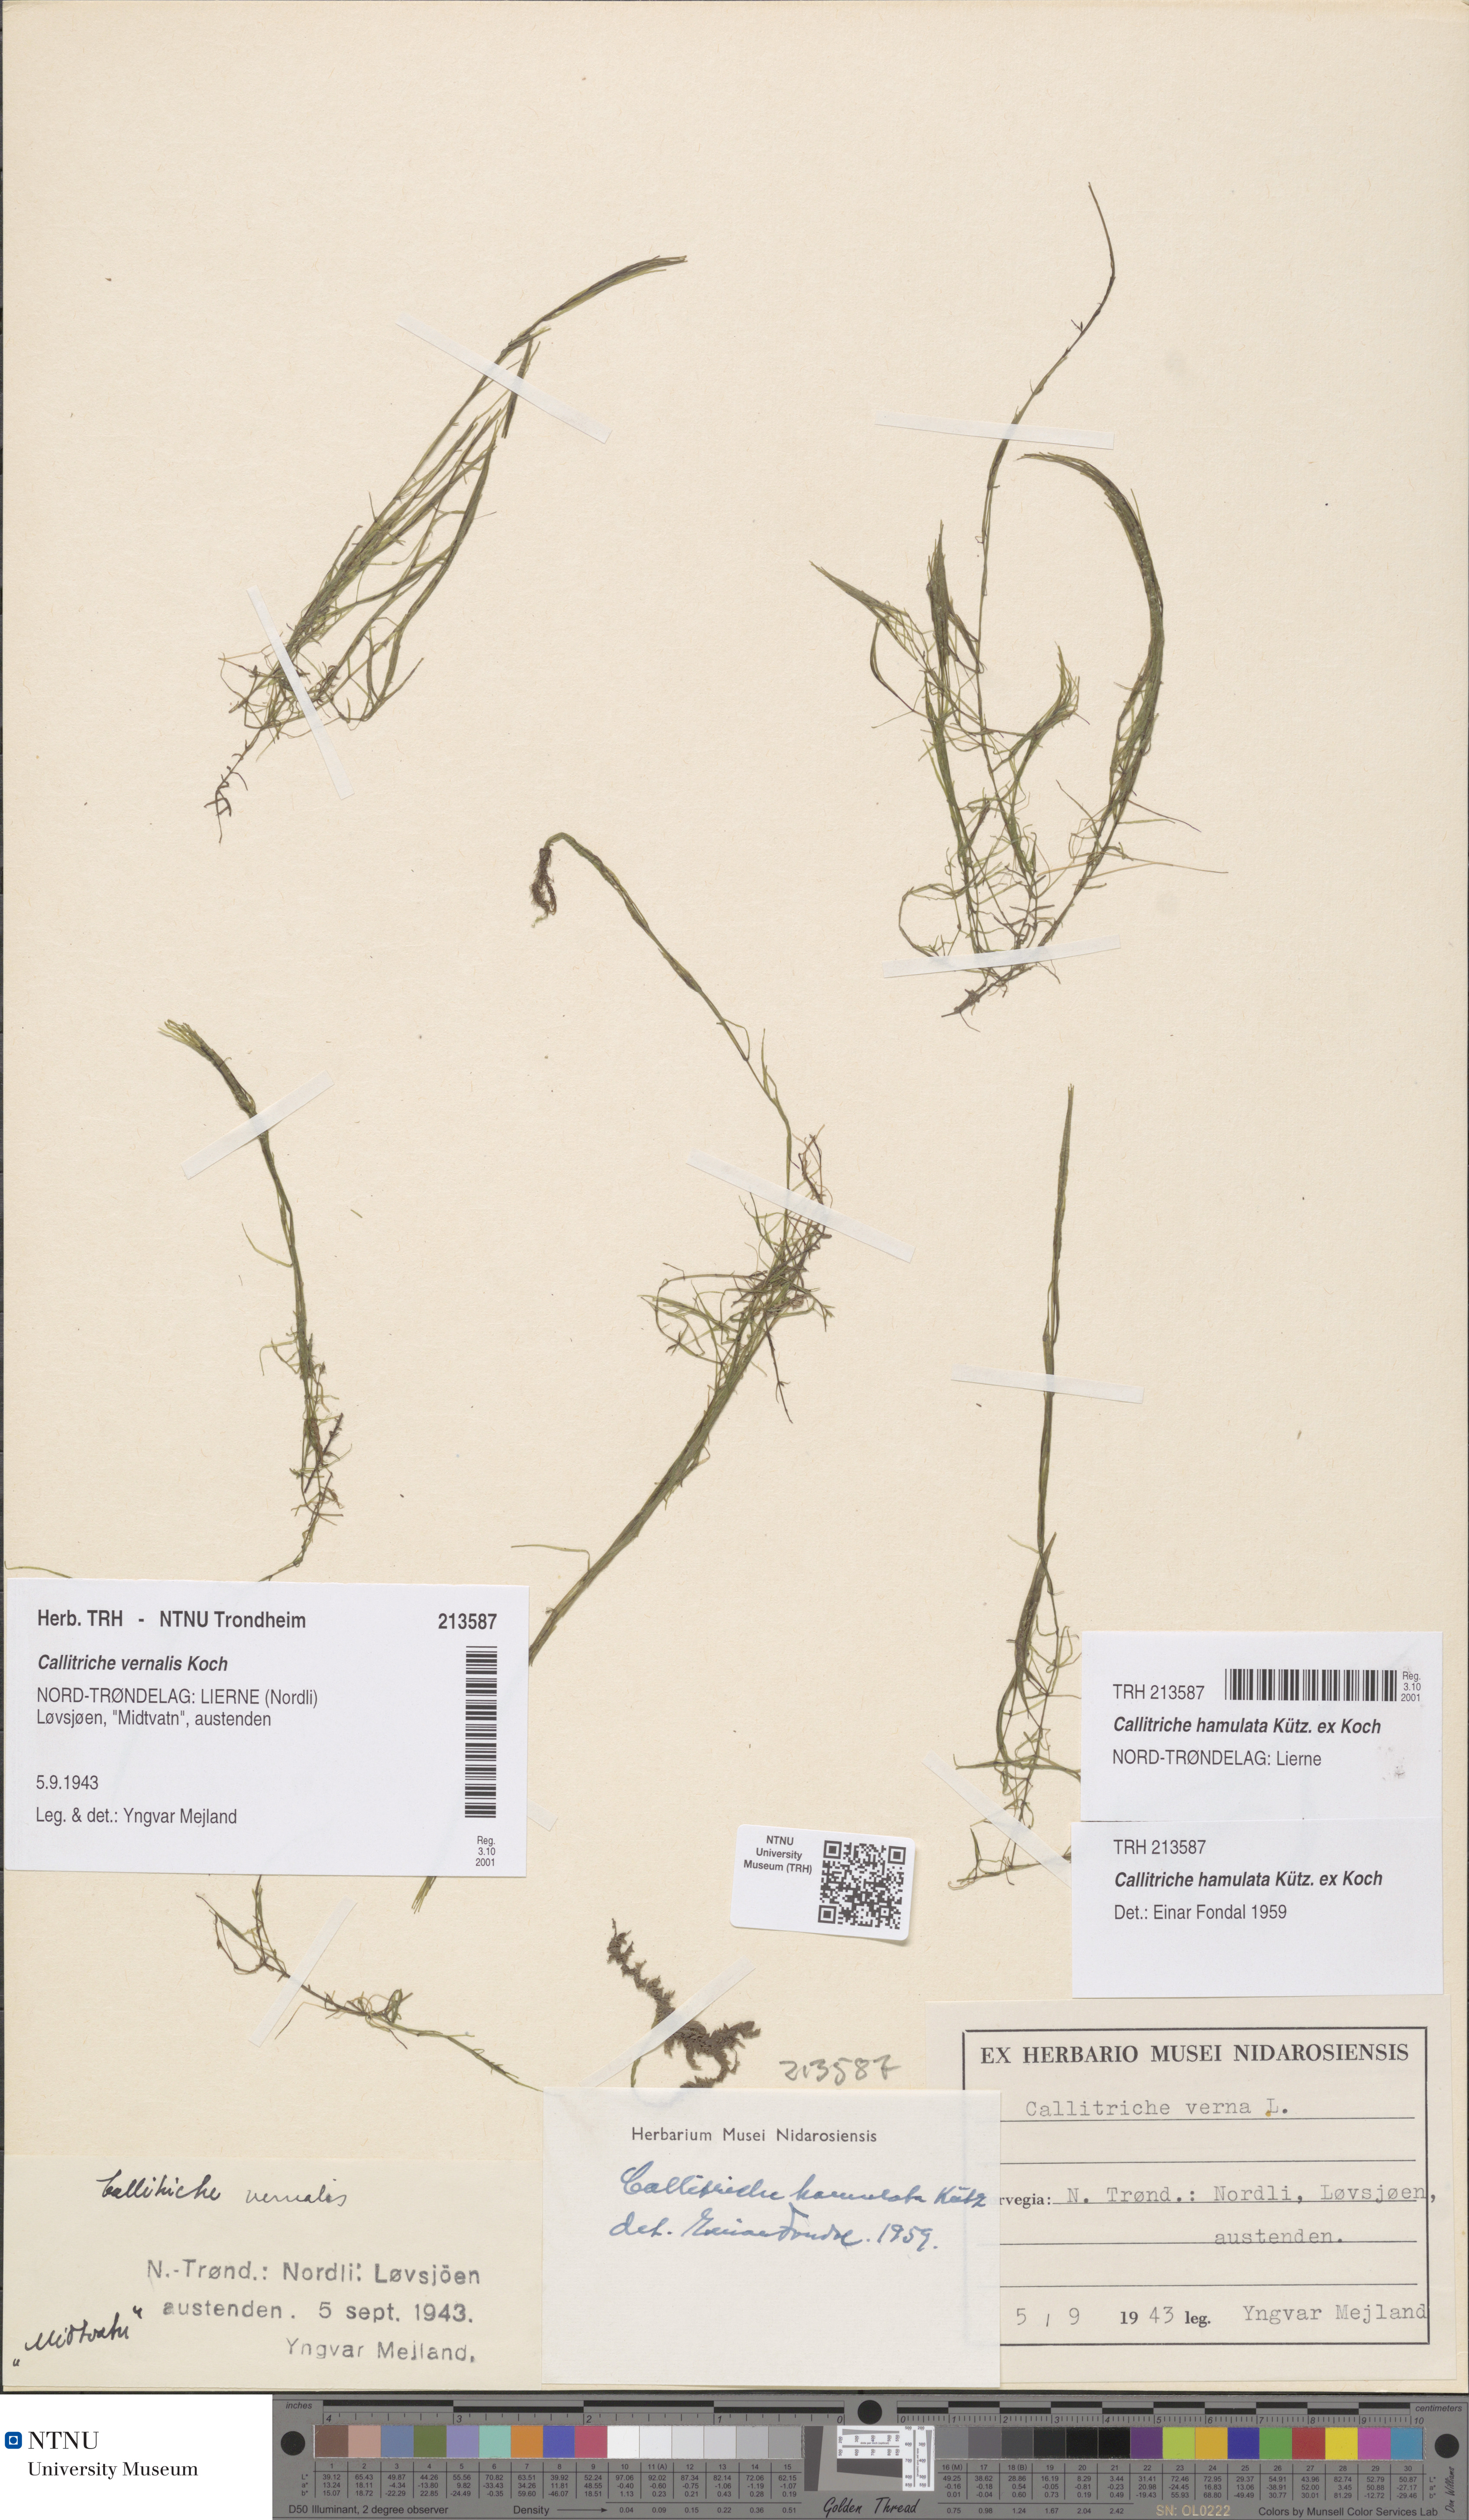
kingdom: Plantae
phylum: Tracheophyta
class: Magnoliopsida
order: Lamiales
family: Plantaginaceae
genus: Callitriche
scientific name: Callitriche hamulata
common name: Intermediate water-starwort
